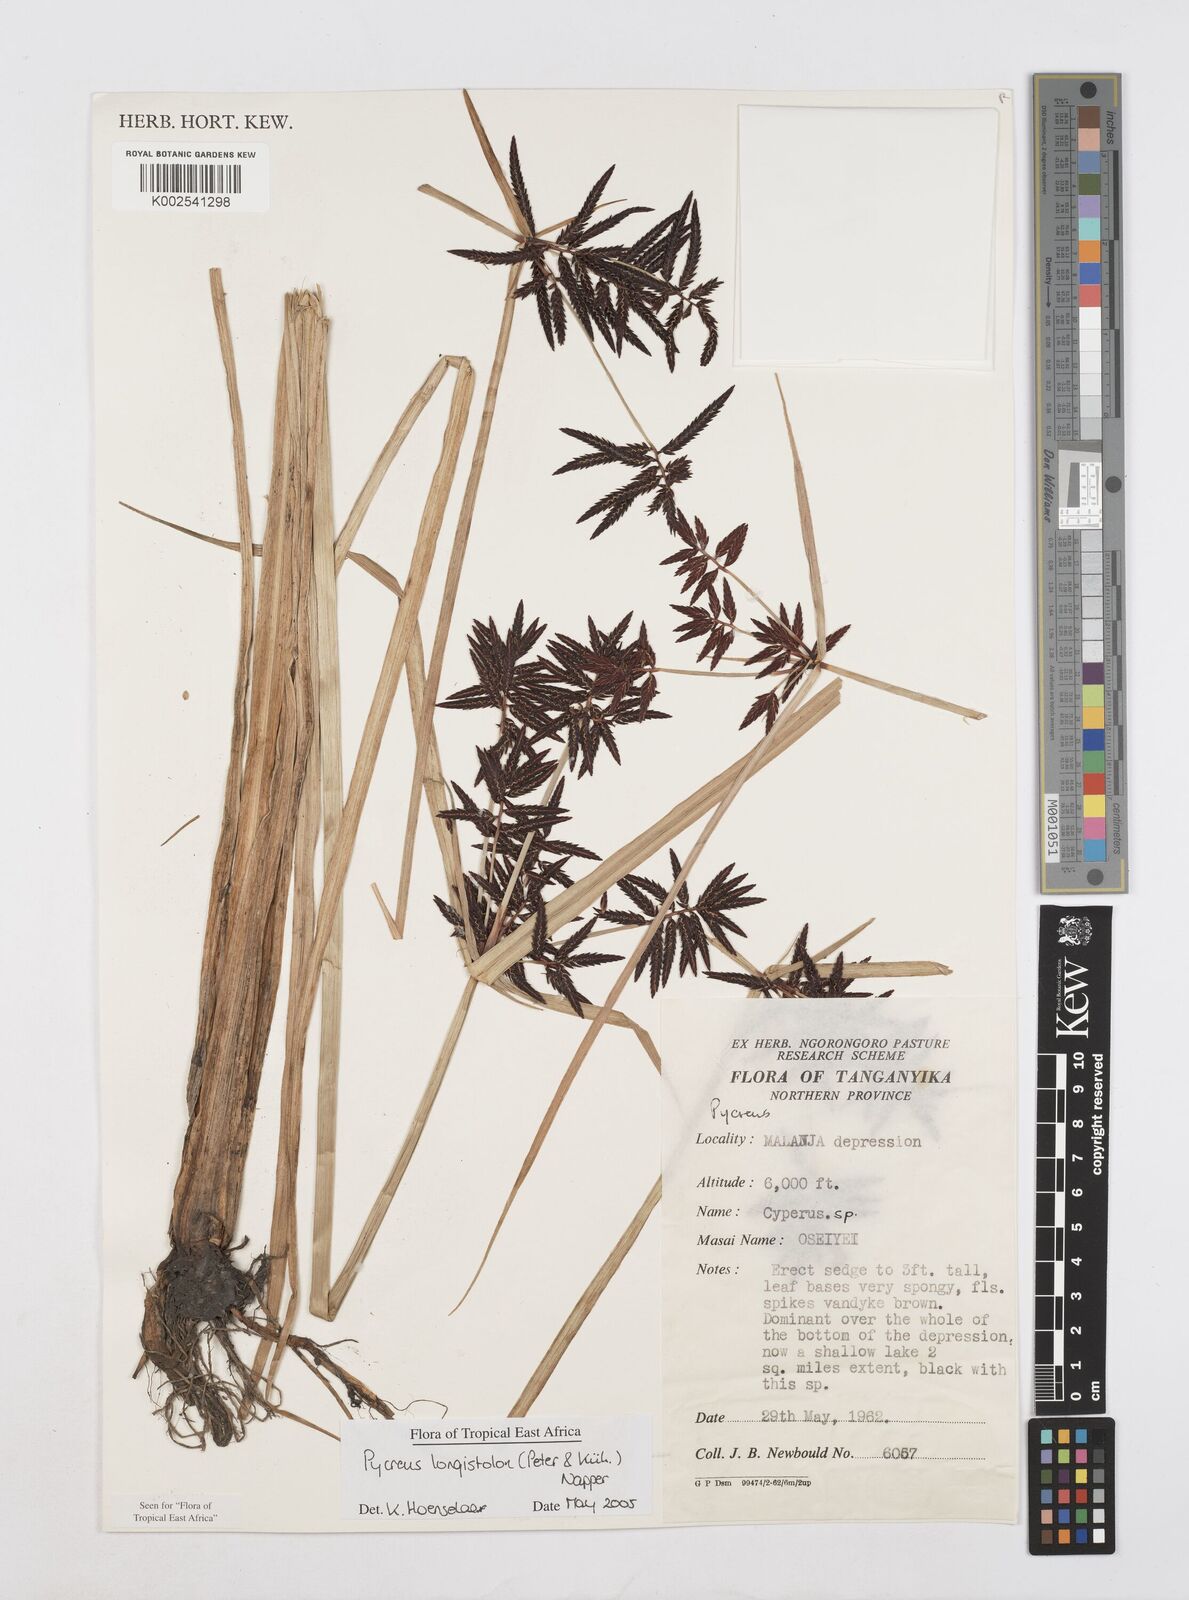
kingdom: Plantae
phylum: Tracheophyta
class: Liliopsida
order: Poales
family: Cyperaceae
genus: Cyperus
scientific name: Cyperus chrysanthus
